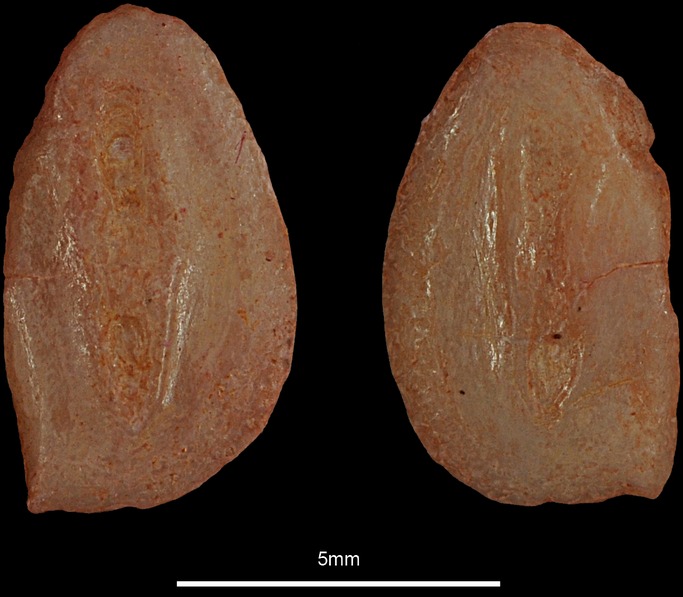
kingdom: Animalia
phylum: Chordata
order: Pleuronectiformes
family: Pleuronectidae
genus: Pleuronectes
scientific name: Pleuronectes platessa
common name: Plaice
